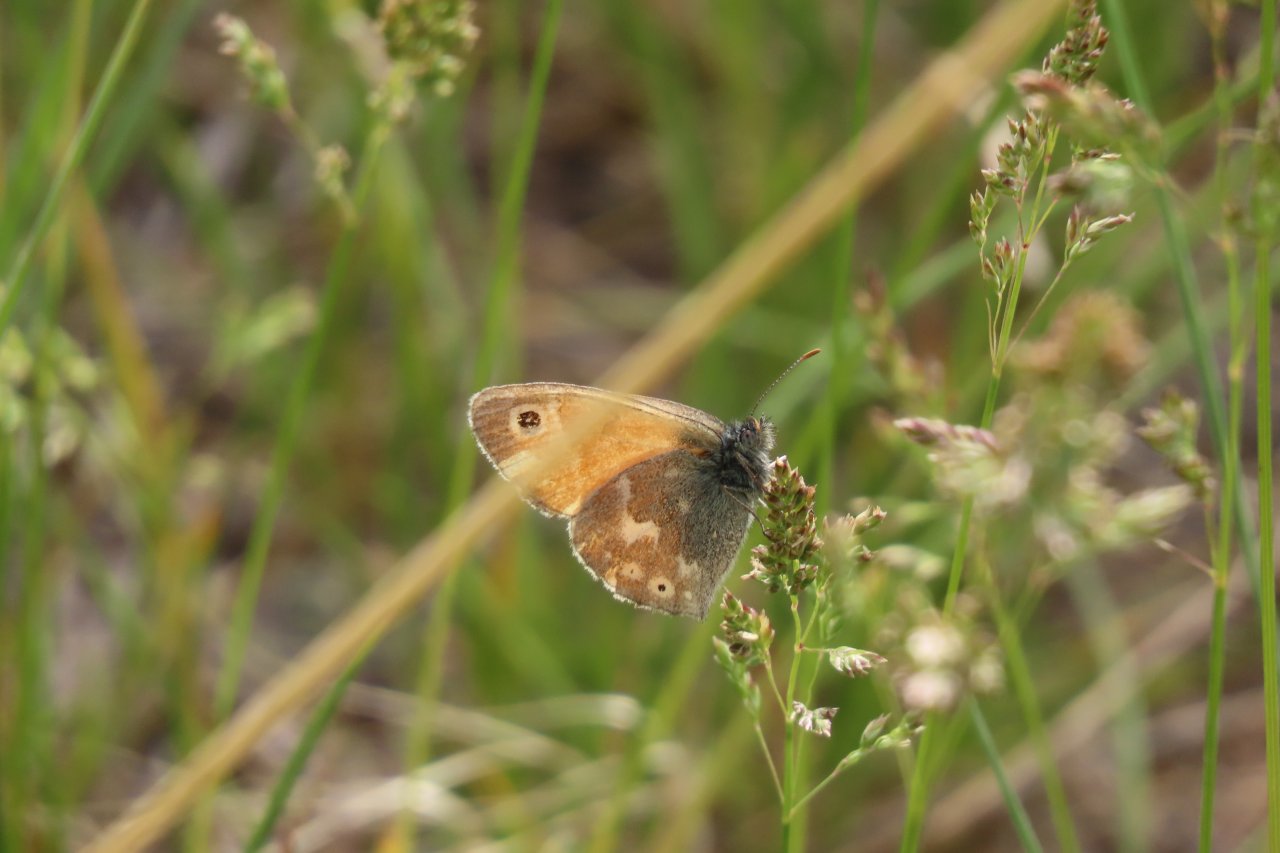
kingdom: Animalia
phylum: Arthropoda
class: Insecta
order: Lepidoptera
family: Nymphalidae
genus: Coenonympha
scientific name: Coenonympha tullia
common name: Large Heath
